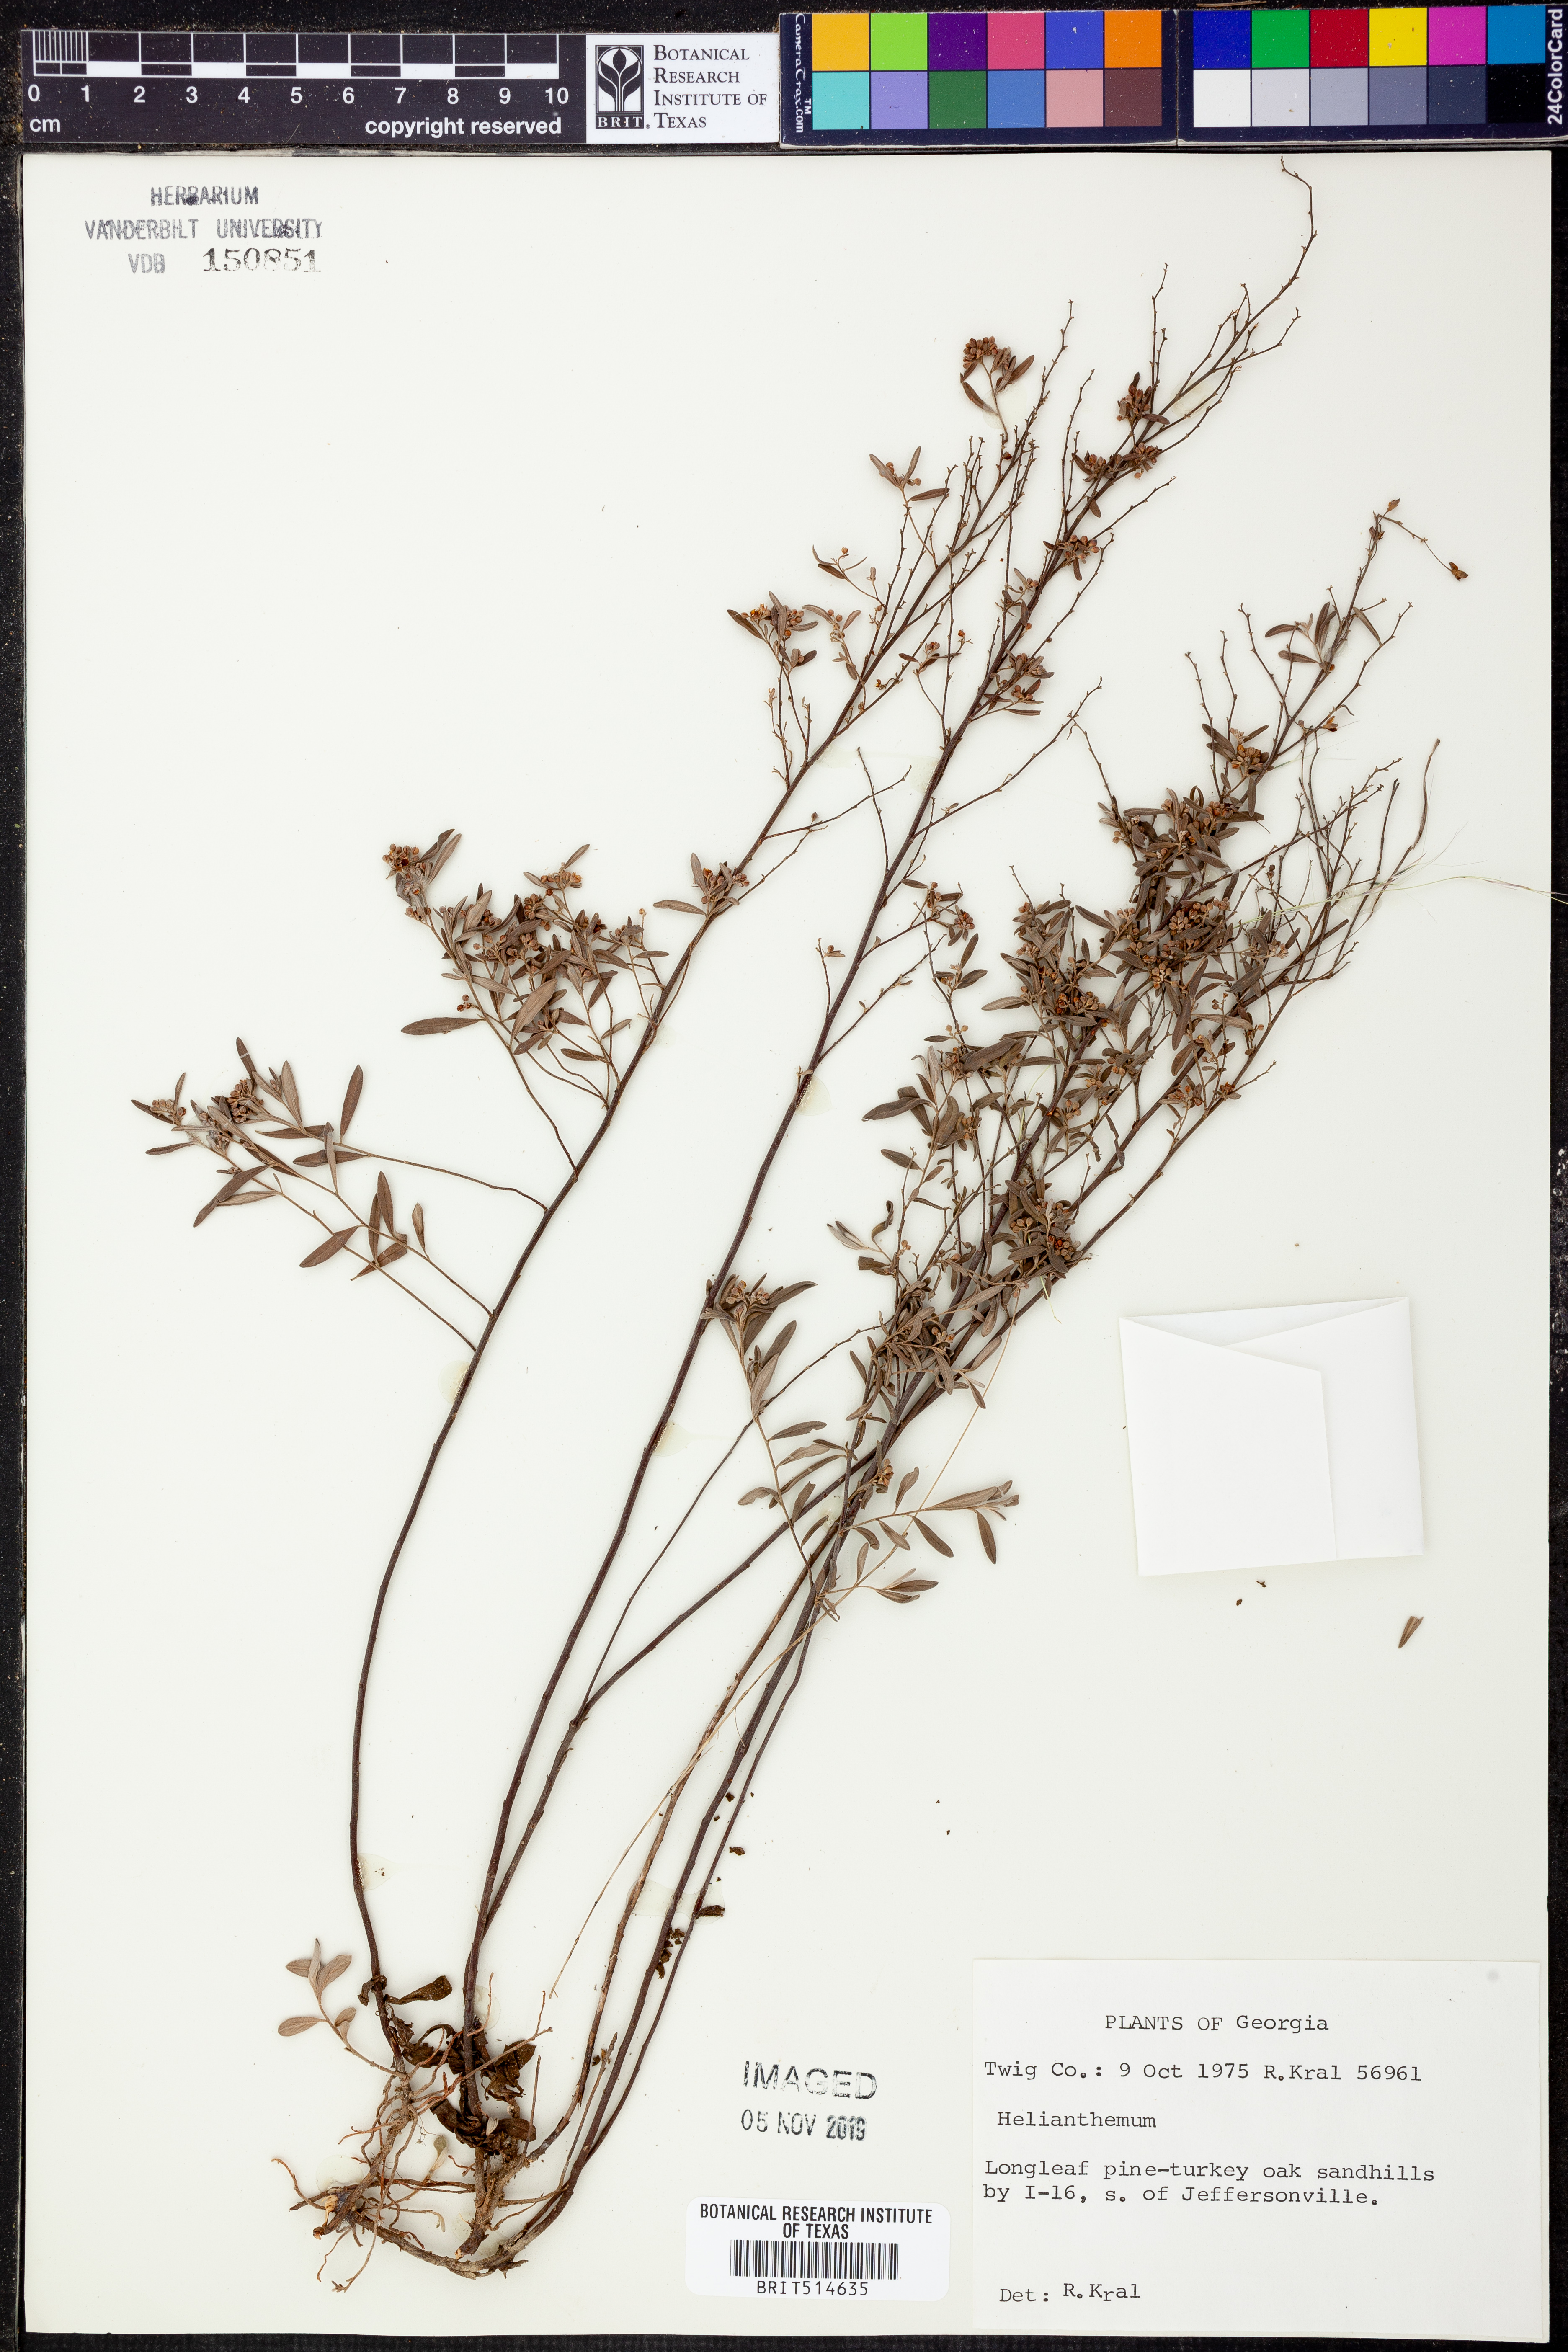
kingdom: Plantae
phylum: Tracheophyta
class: Magnoliopsida
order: Malvales
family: Cistaceae
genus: Helianthemum
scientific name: Helianthemum
